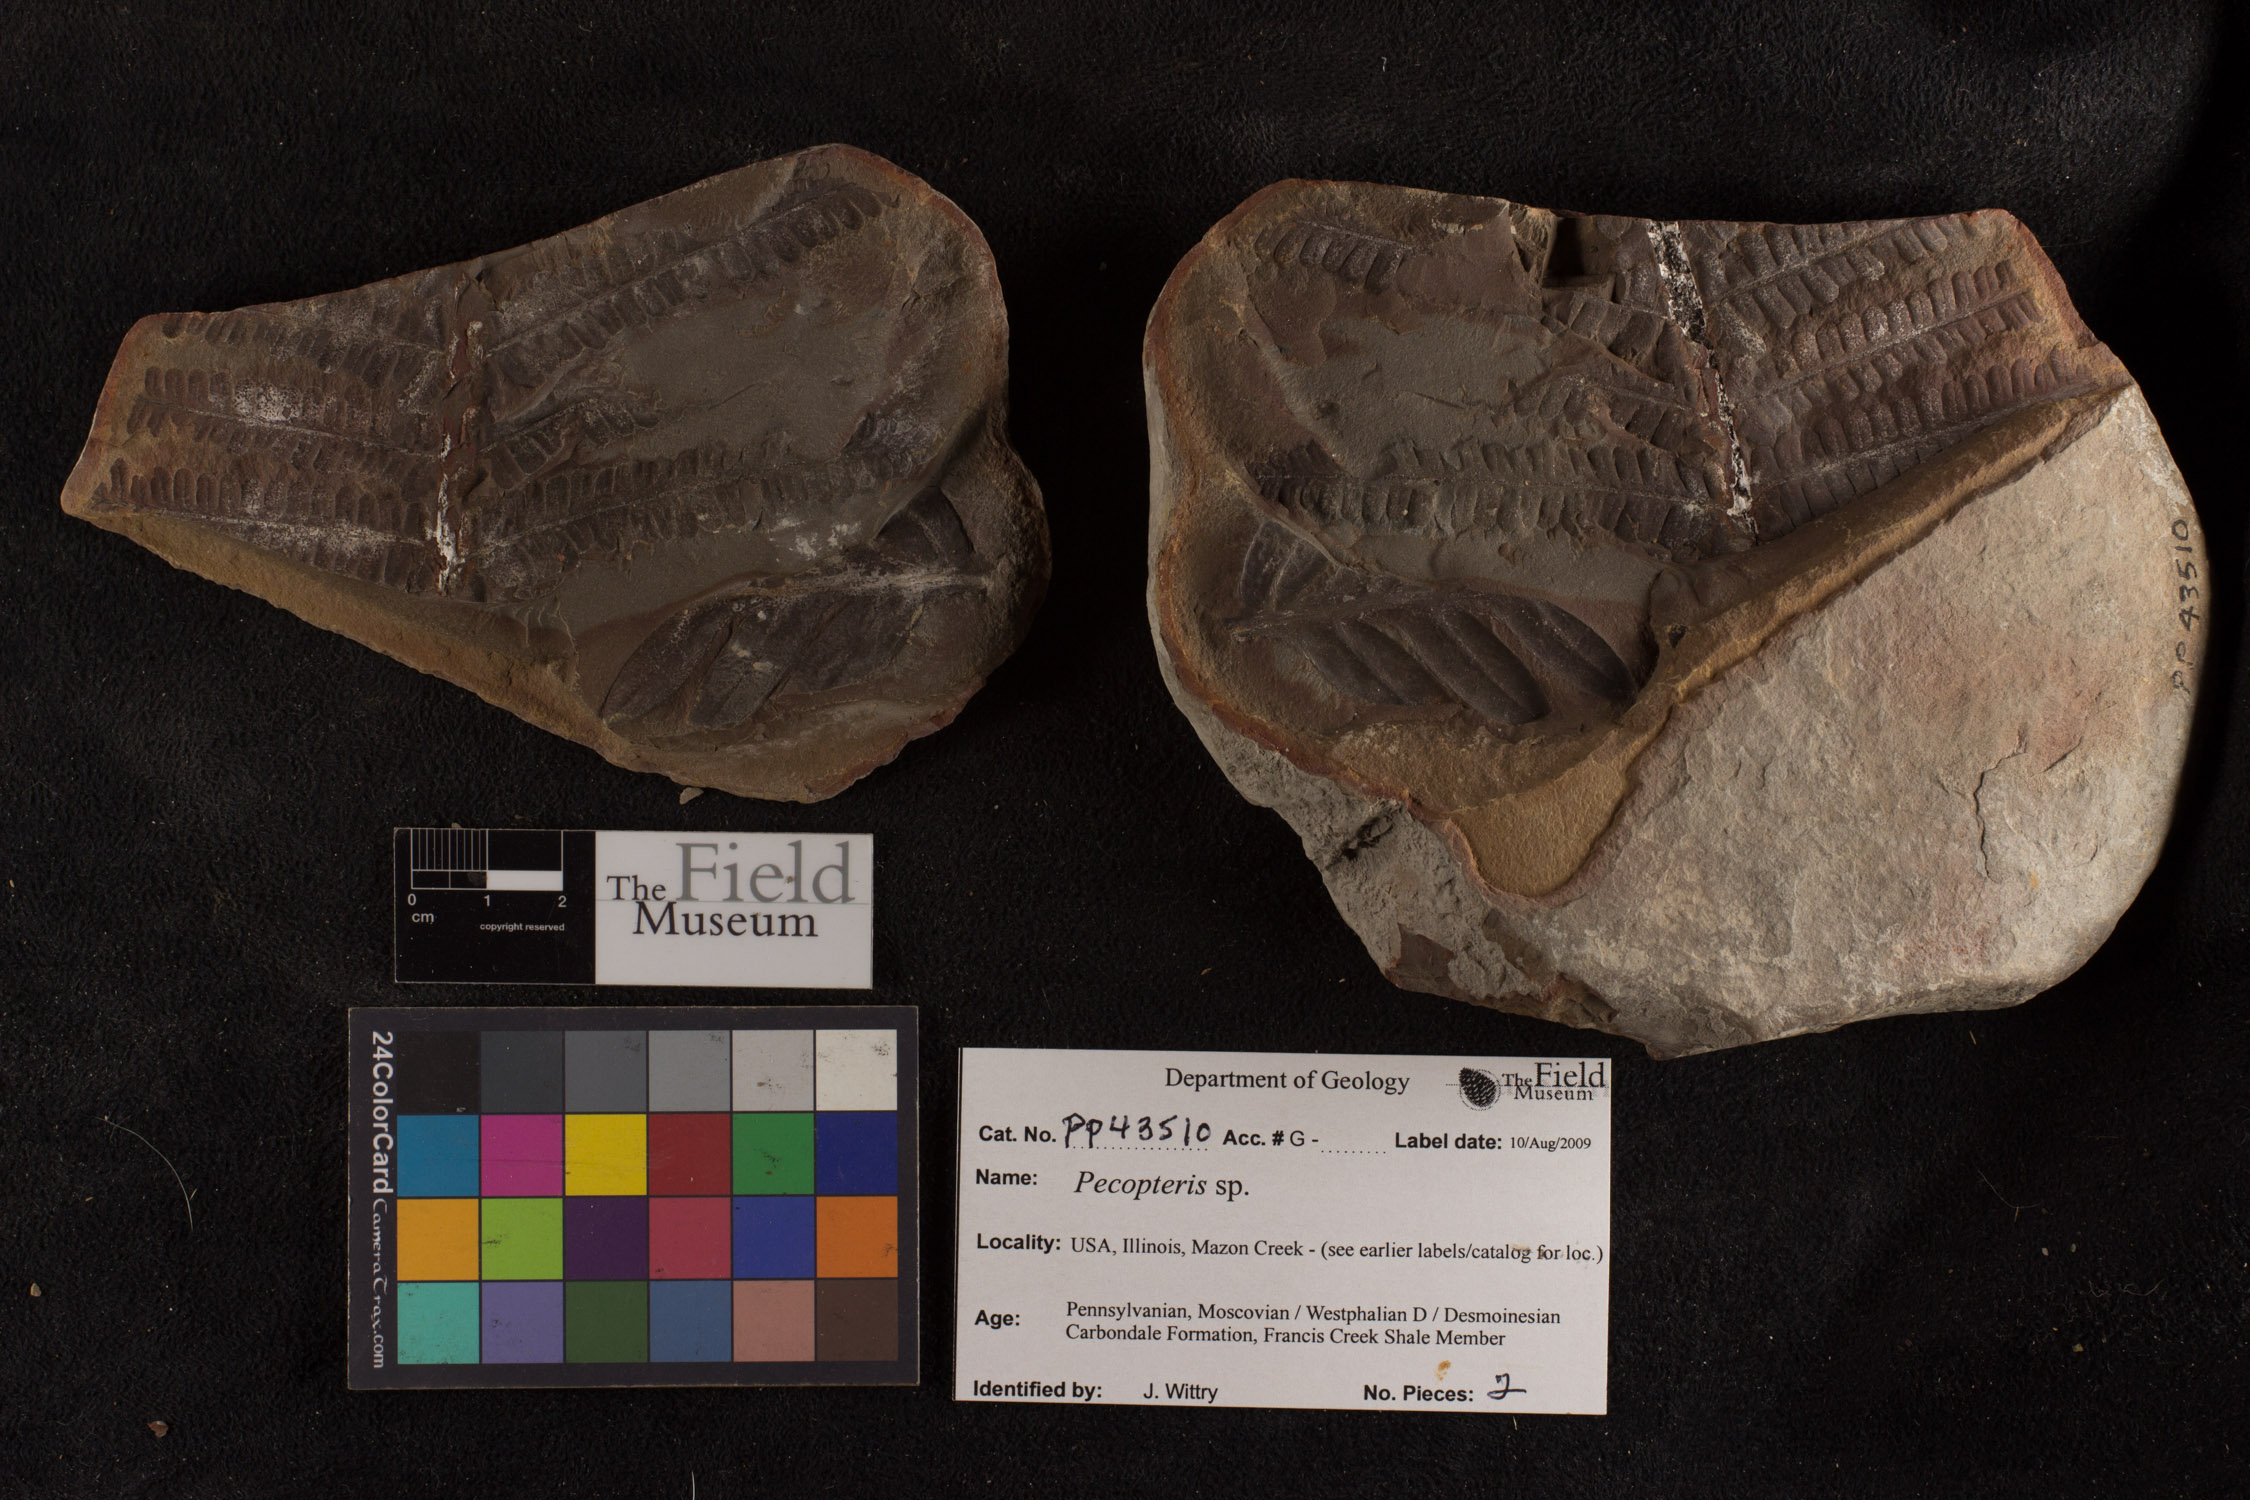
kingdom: Plantae
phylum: Tracheophyta
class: Polypodiopsida
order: Marattiales
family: Asterothecaceae
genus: Pecopteris
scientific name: Pecopteris
